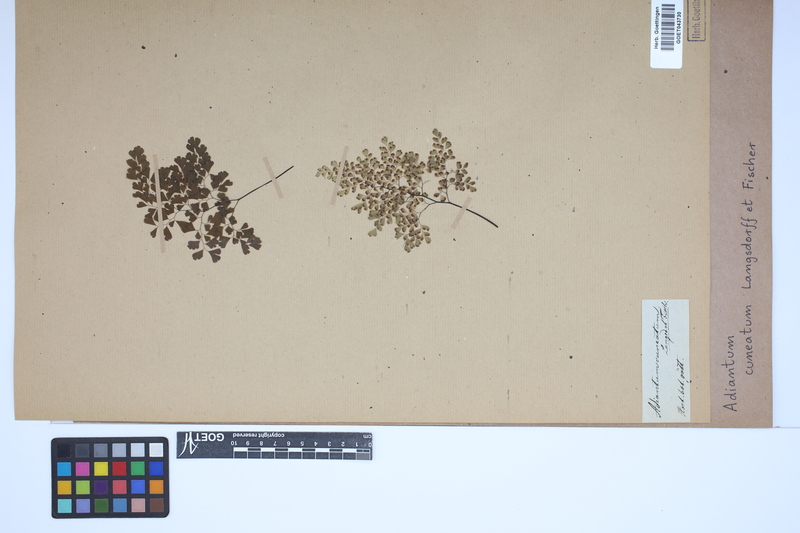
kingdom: Plantae
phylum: Tracheophyta
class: Polypodiopsida
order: Polypodiales
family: Pteridaceae
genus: Adiantum
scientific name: Adiantum raddianum
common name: Delta maidenhair fern
